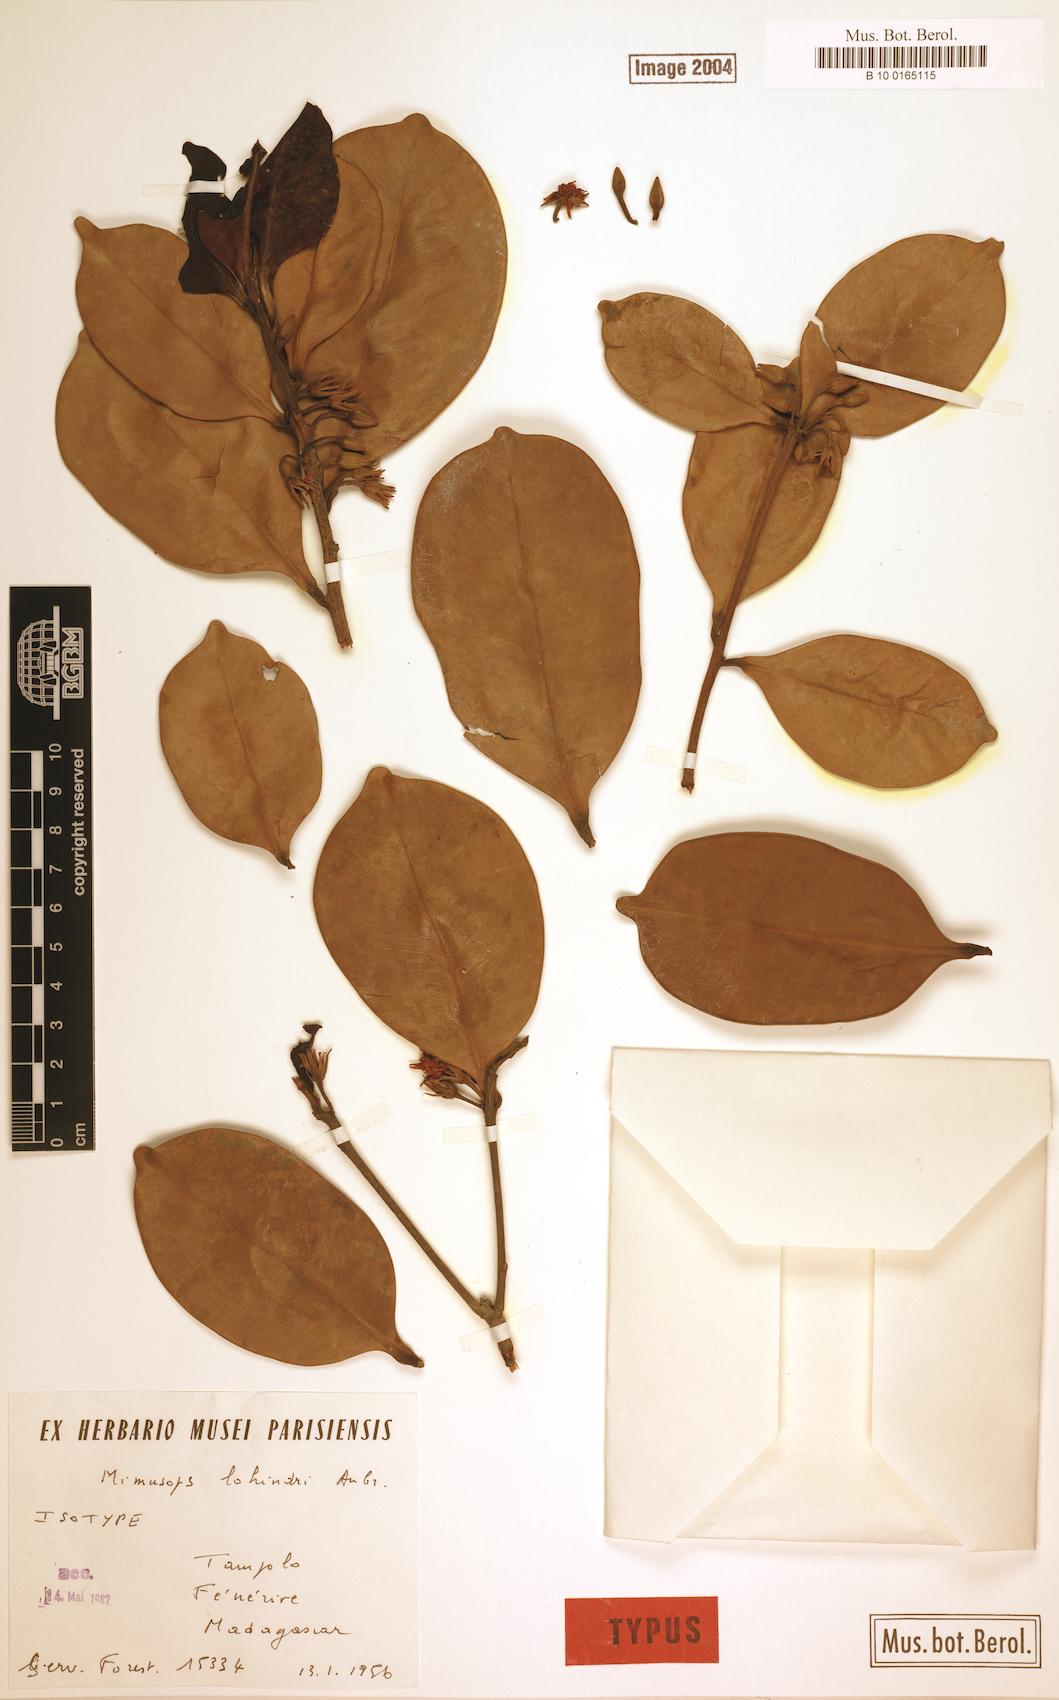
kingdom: Plantae
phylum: Tracheophyta
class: Magnoliopsida
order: Ericales
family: Sapotaceae
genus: Mimusops
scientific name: Mimusops lohindri
